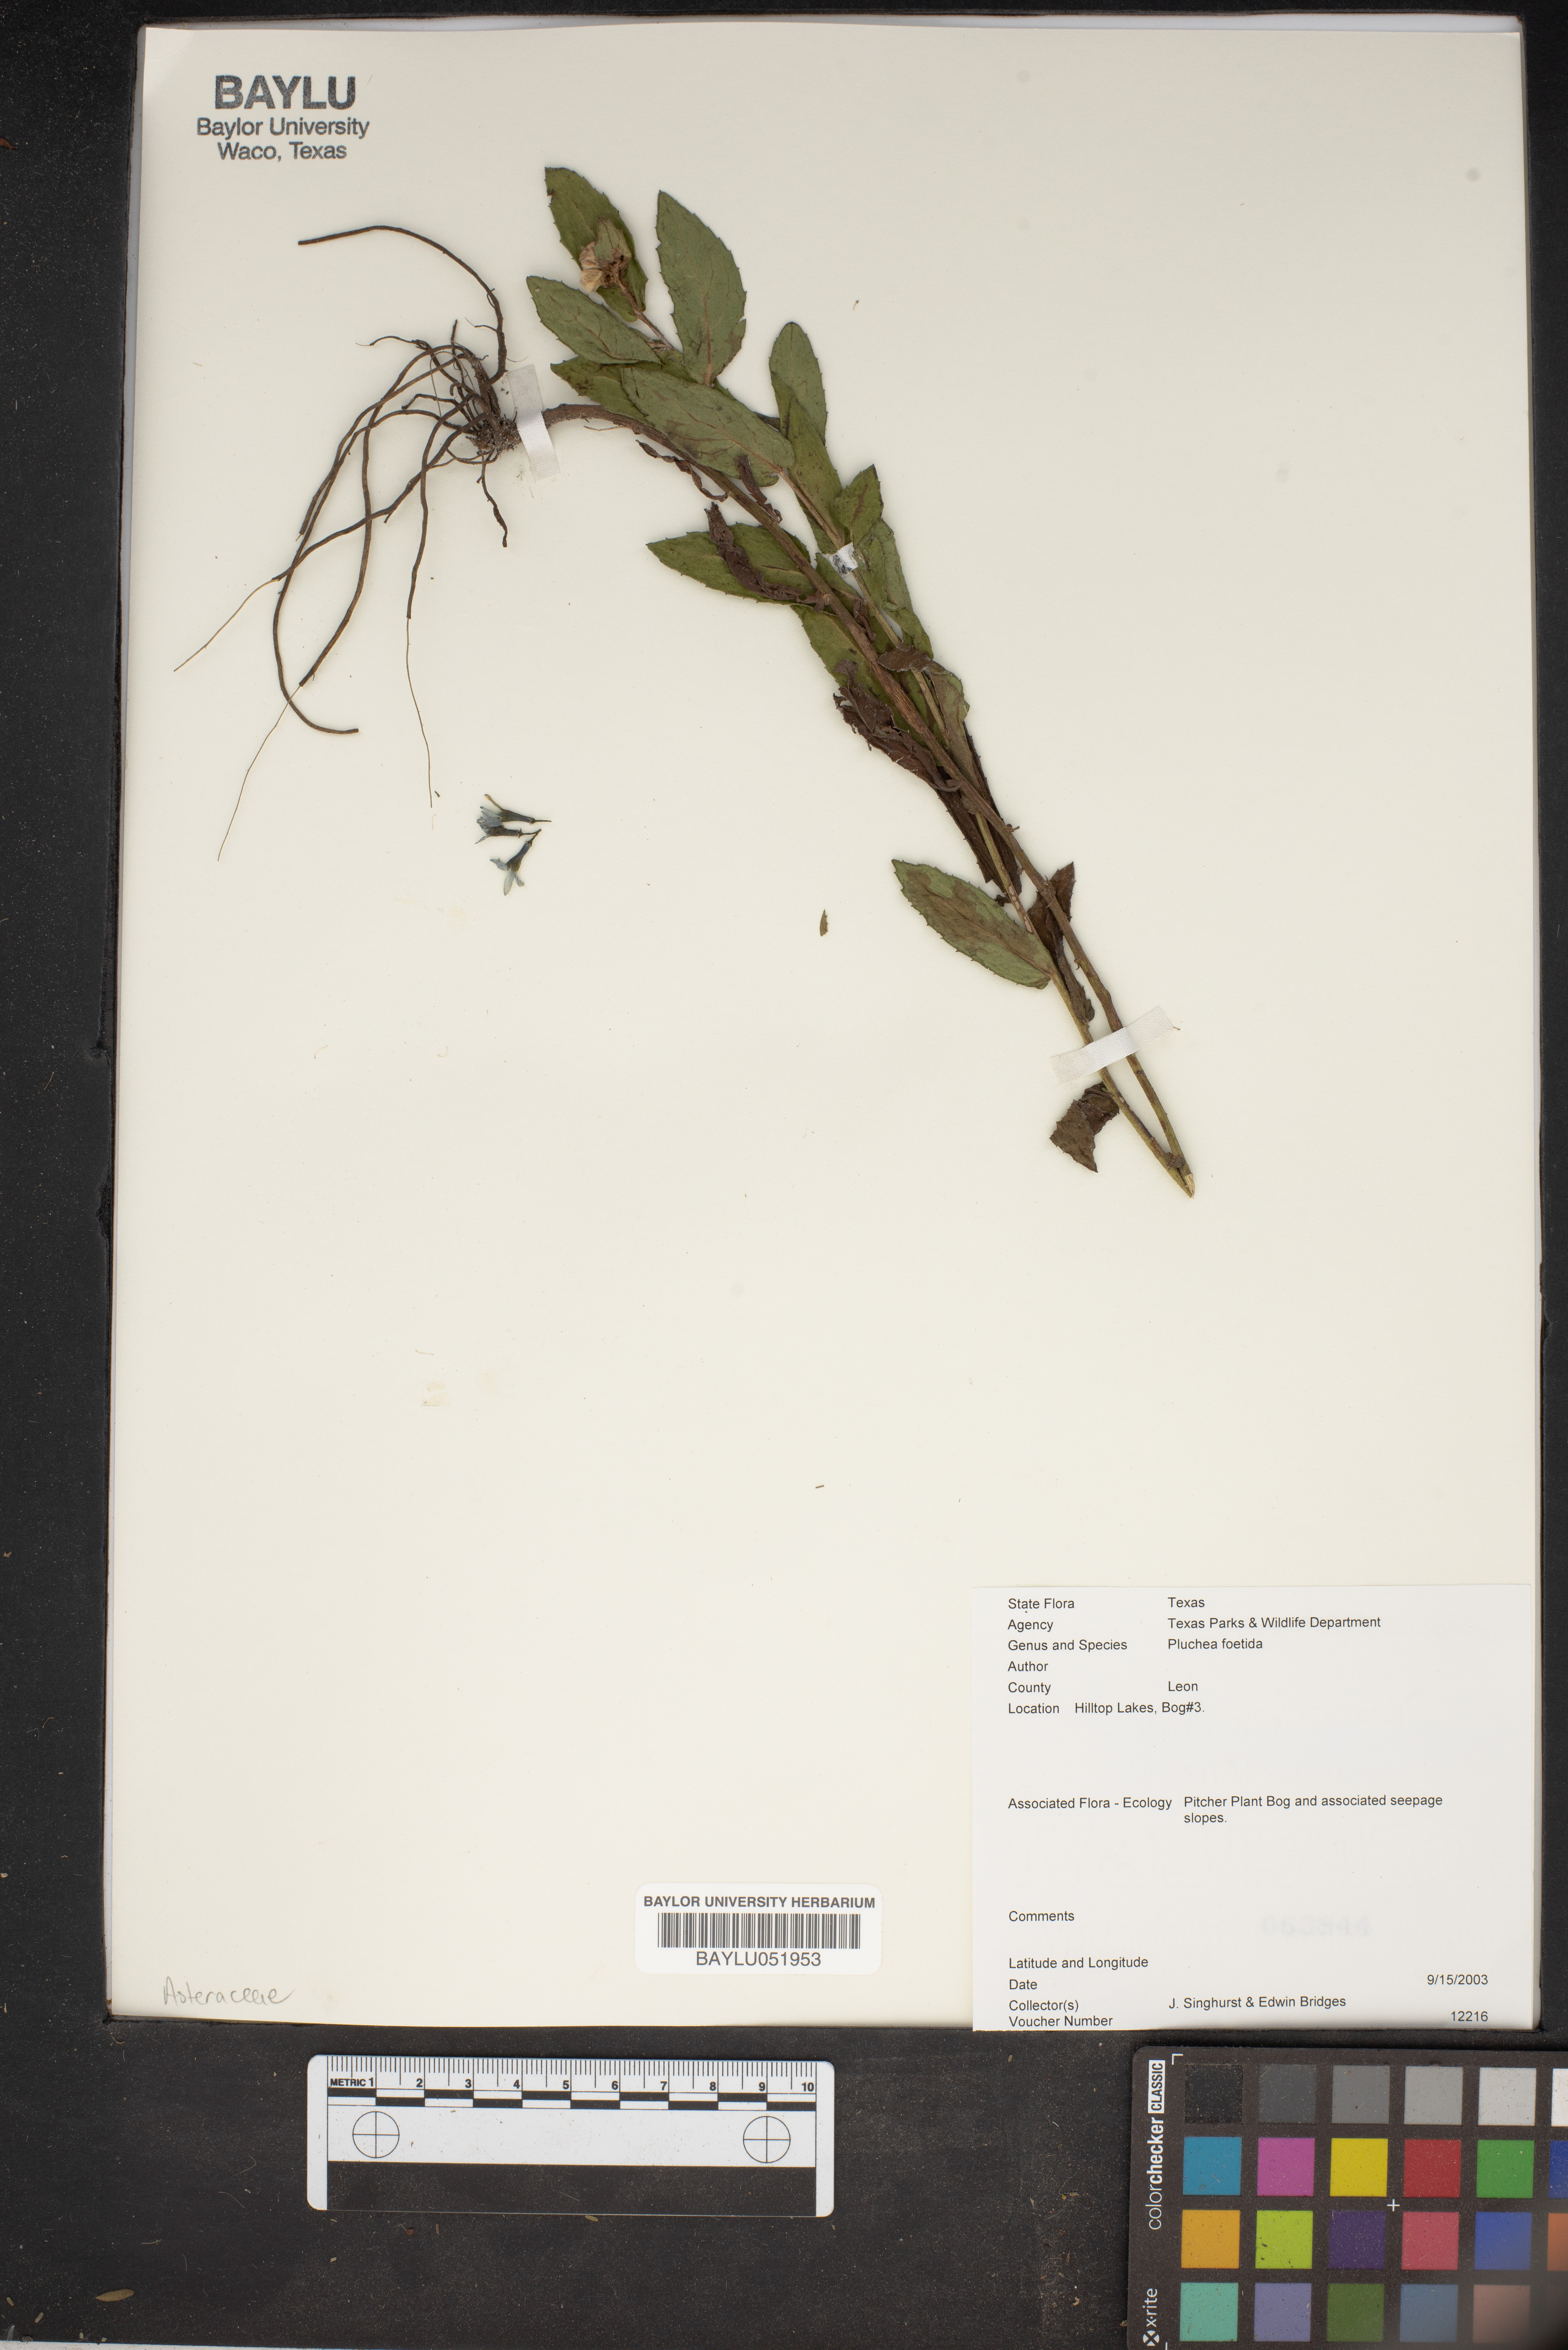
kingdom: Plantae
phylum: Tracheophyta
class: Magnoliopsida
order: Asterales
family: Asteraceae
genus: Pluchea
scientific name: Pluchea foetida
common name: Stinking camphorweed
